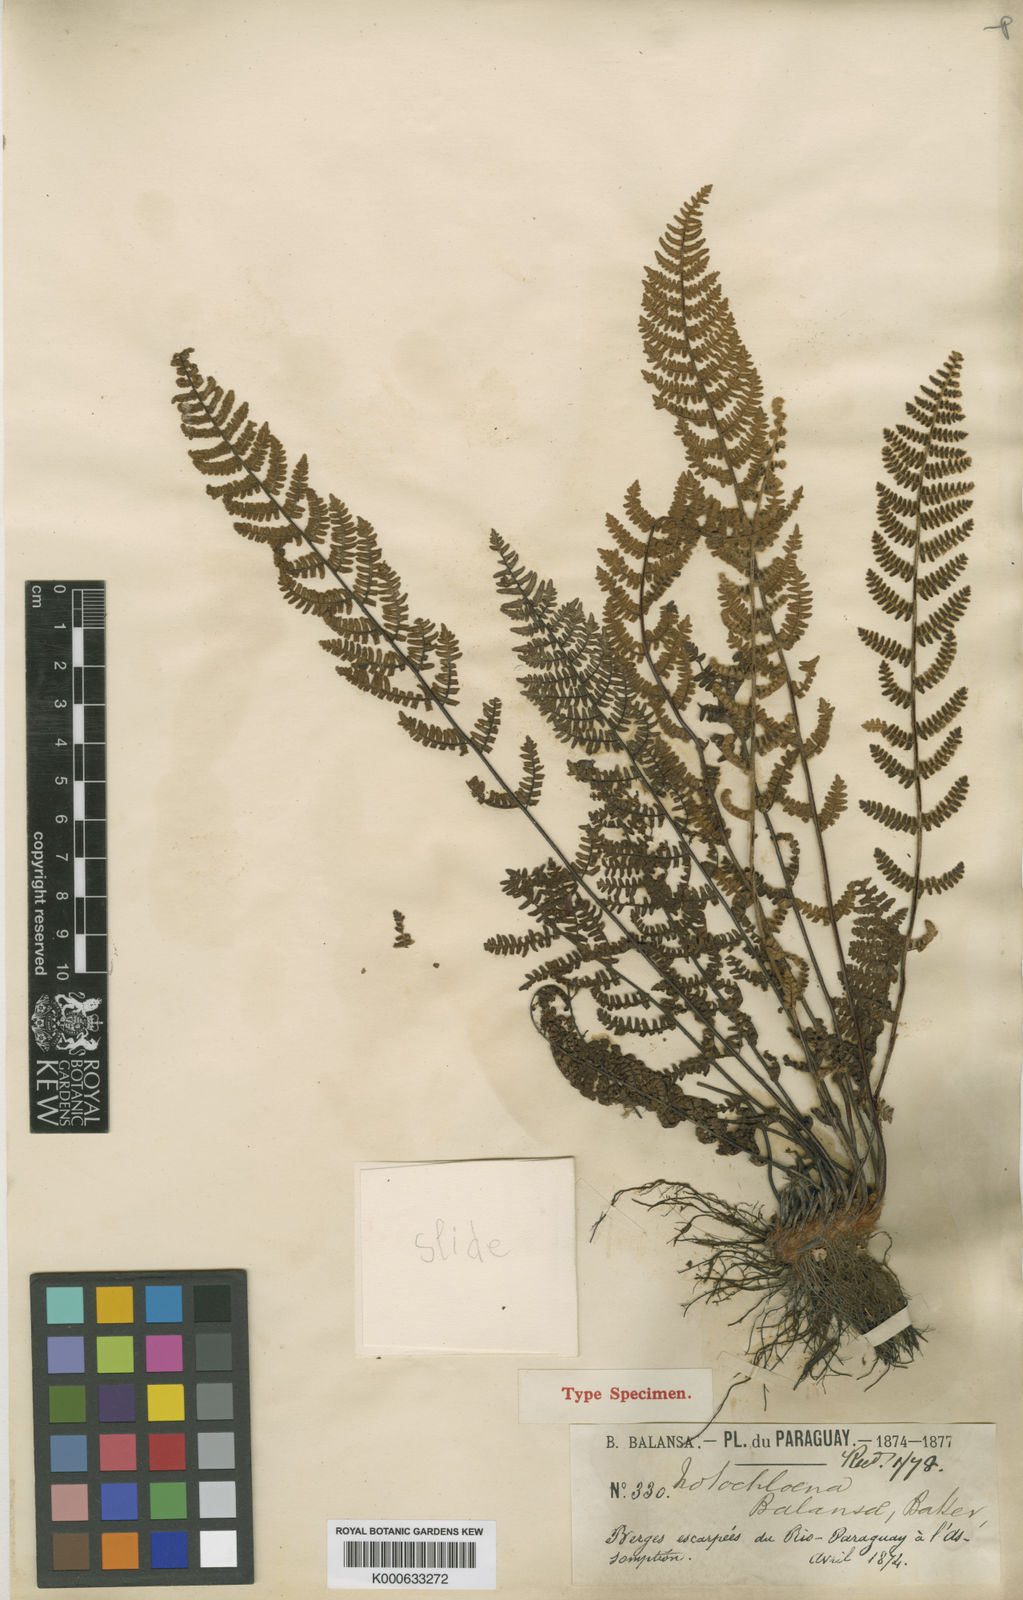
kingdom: Plantae
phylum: Tracheophyta
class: Polypodiopsida
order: Polypodiales
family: Pteridaceae
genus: Cheilanthes
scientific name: Cheilanthes obducta
